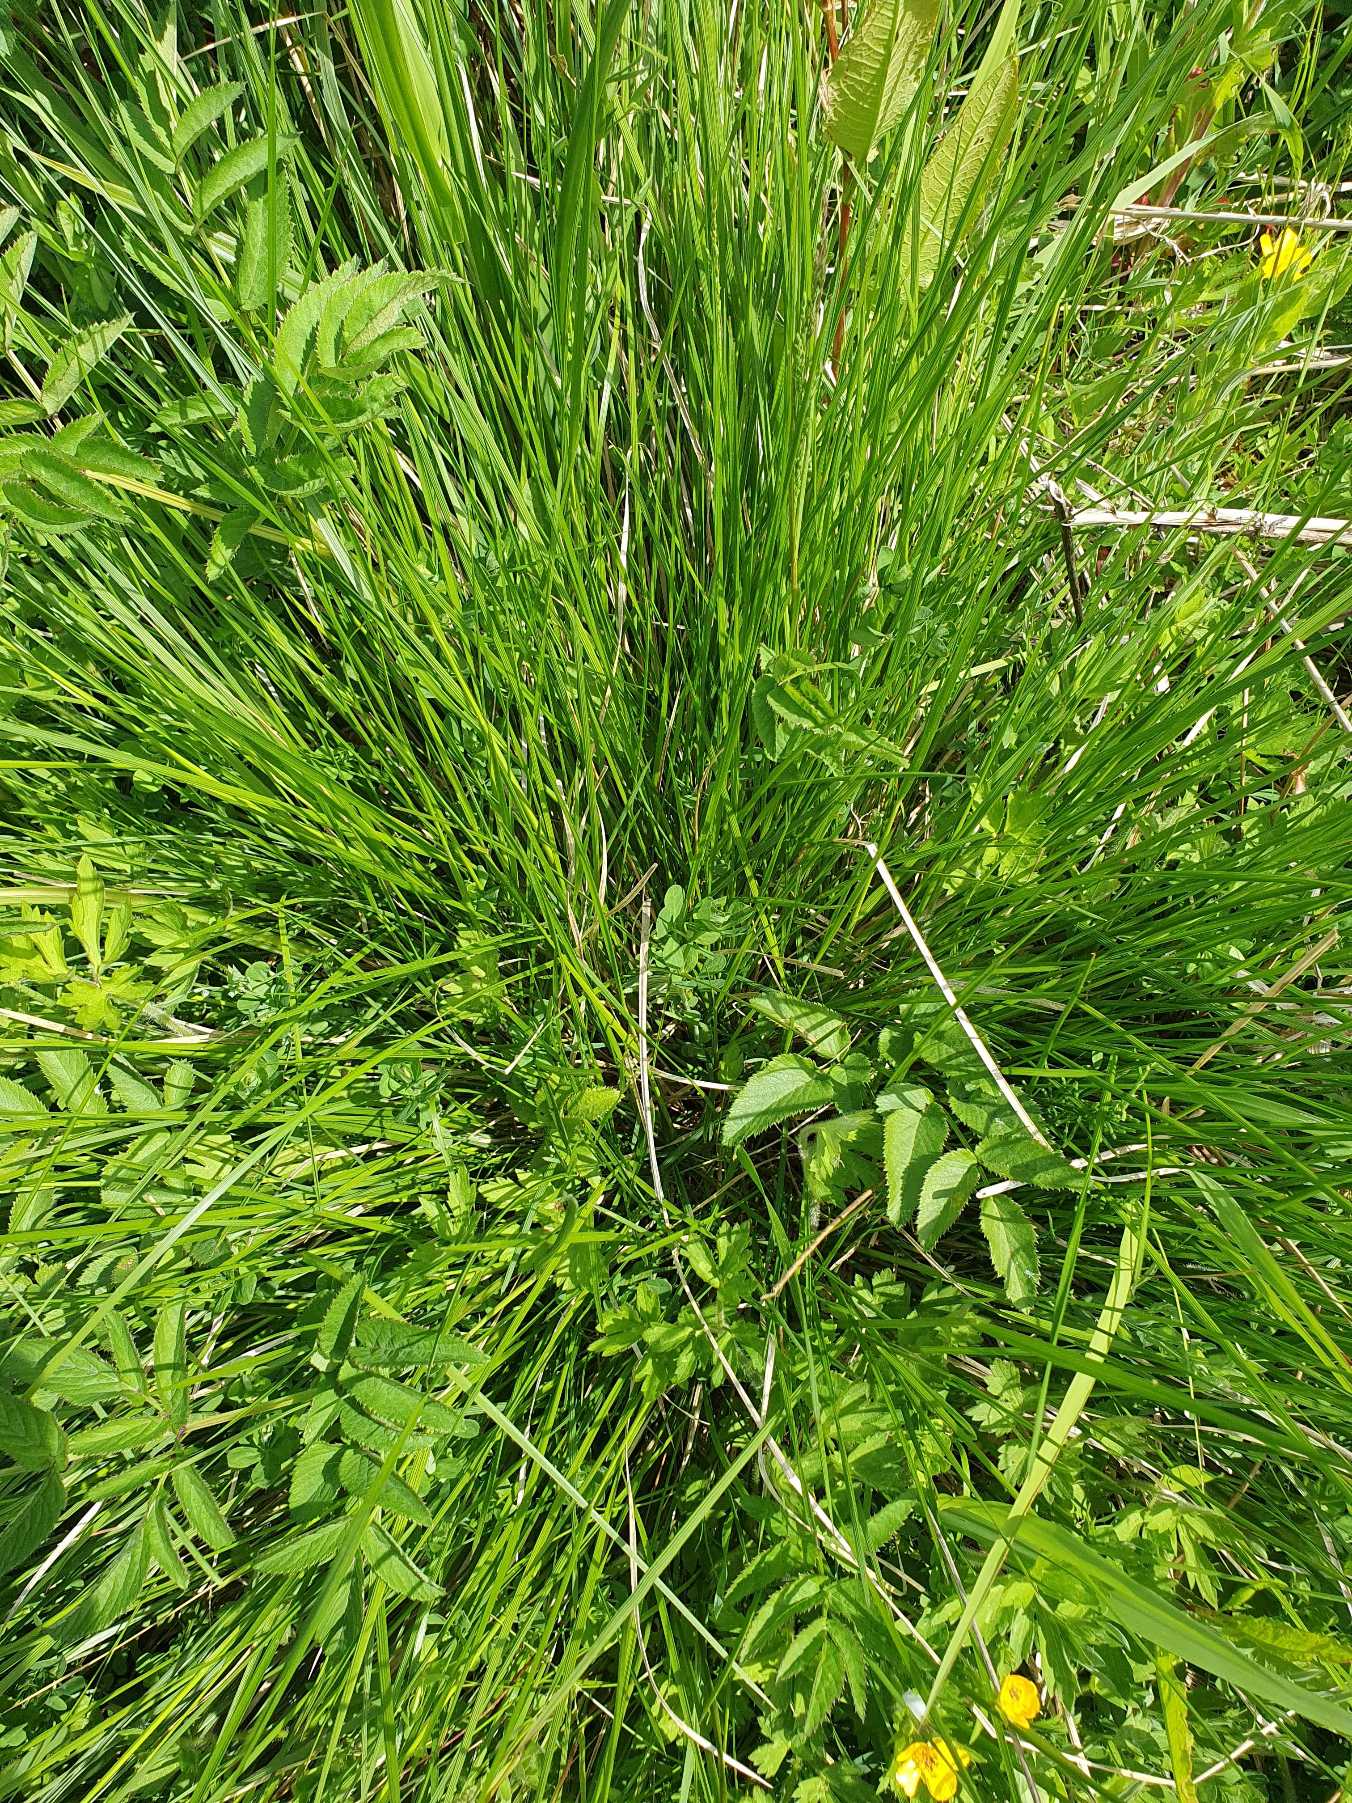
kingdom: Plantae
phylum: Tracheophyta
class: Liliopsida
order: Poales
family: Poaceae
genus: Deschampsia
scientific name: Deschampsia cespitosa
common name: Mose-bunke
